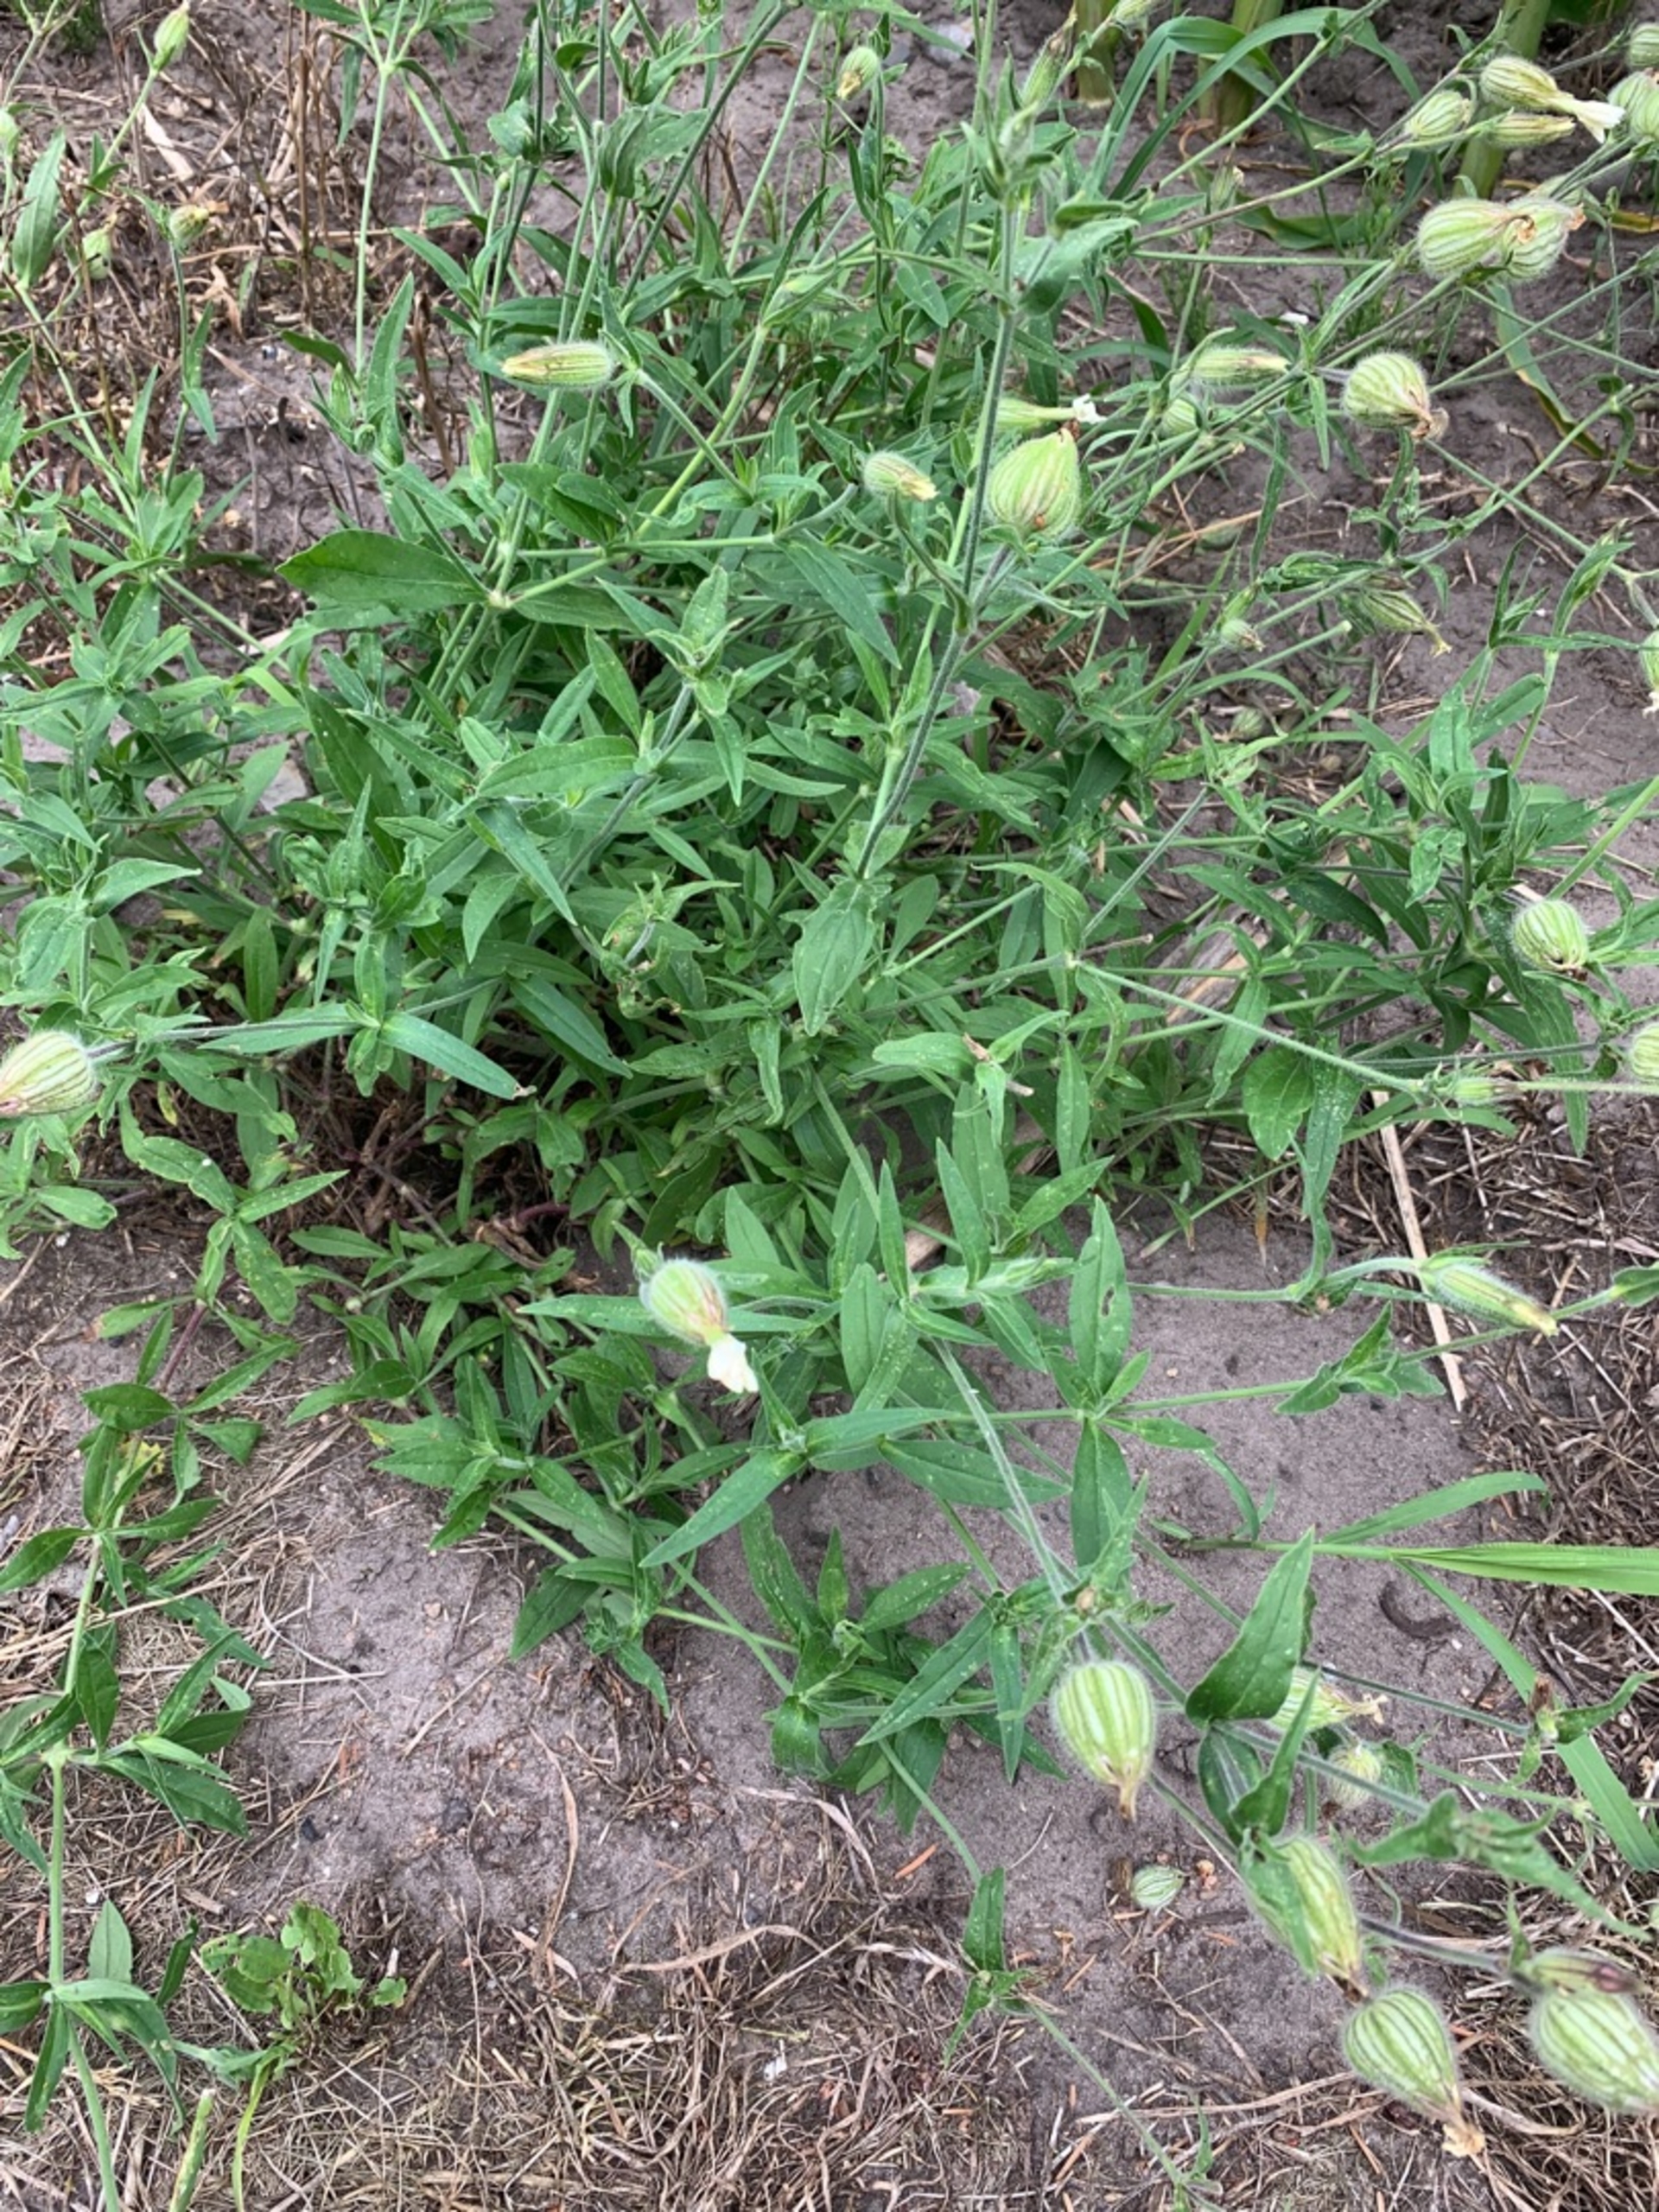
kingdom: Plantae
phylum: Tracheophyta
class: Magnoliopsida
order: Caryophyllales
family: Caryophyllaceae
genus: Silene
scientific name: Silene latifolia
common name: Aftenpragtstjerne
